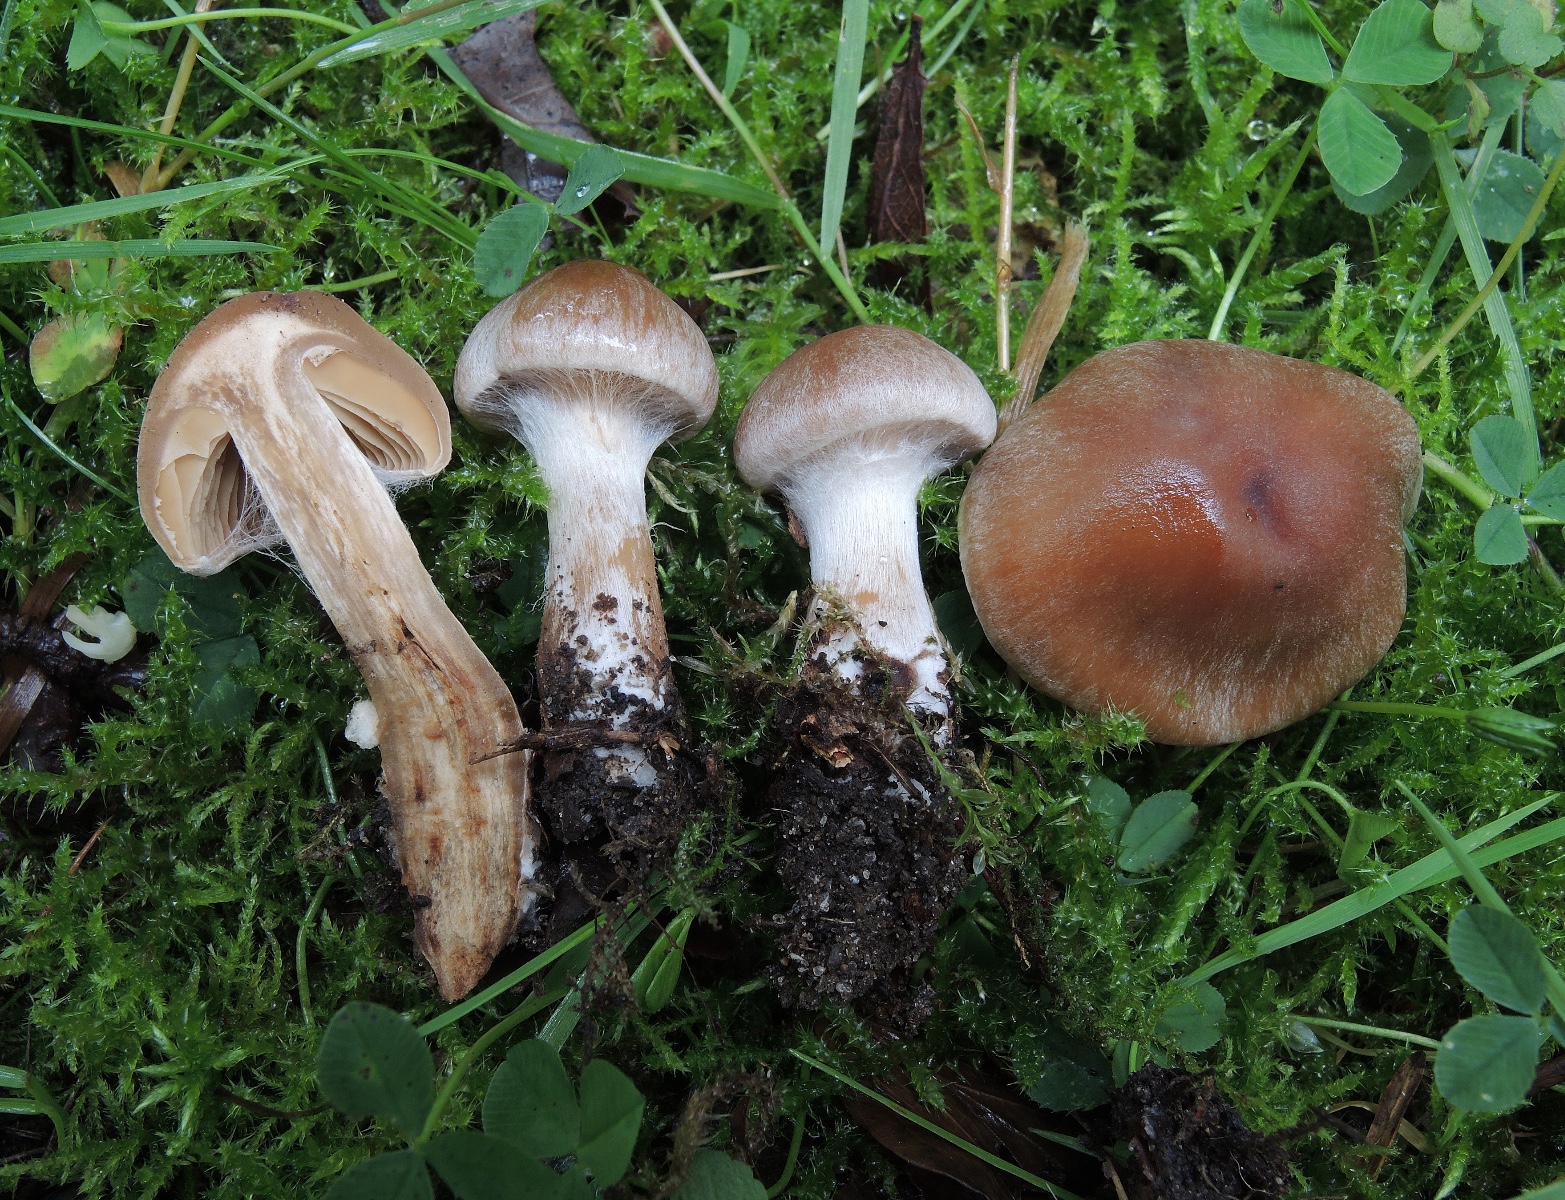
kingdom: Fungi
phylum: Basidiomycota
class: Agaricomycetes
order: Agaricales
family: Cortinariaceae
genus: Cortinarius
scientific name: Cortinarius epipurrus
